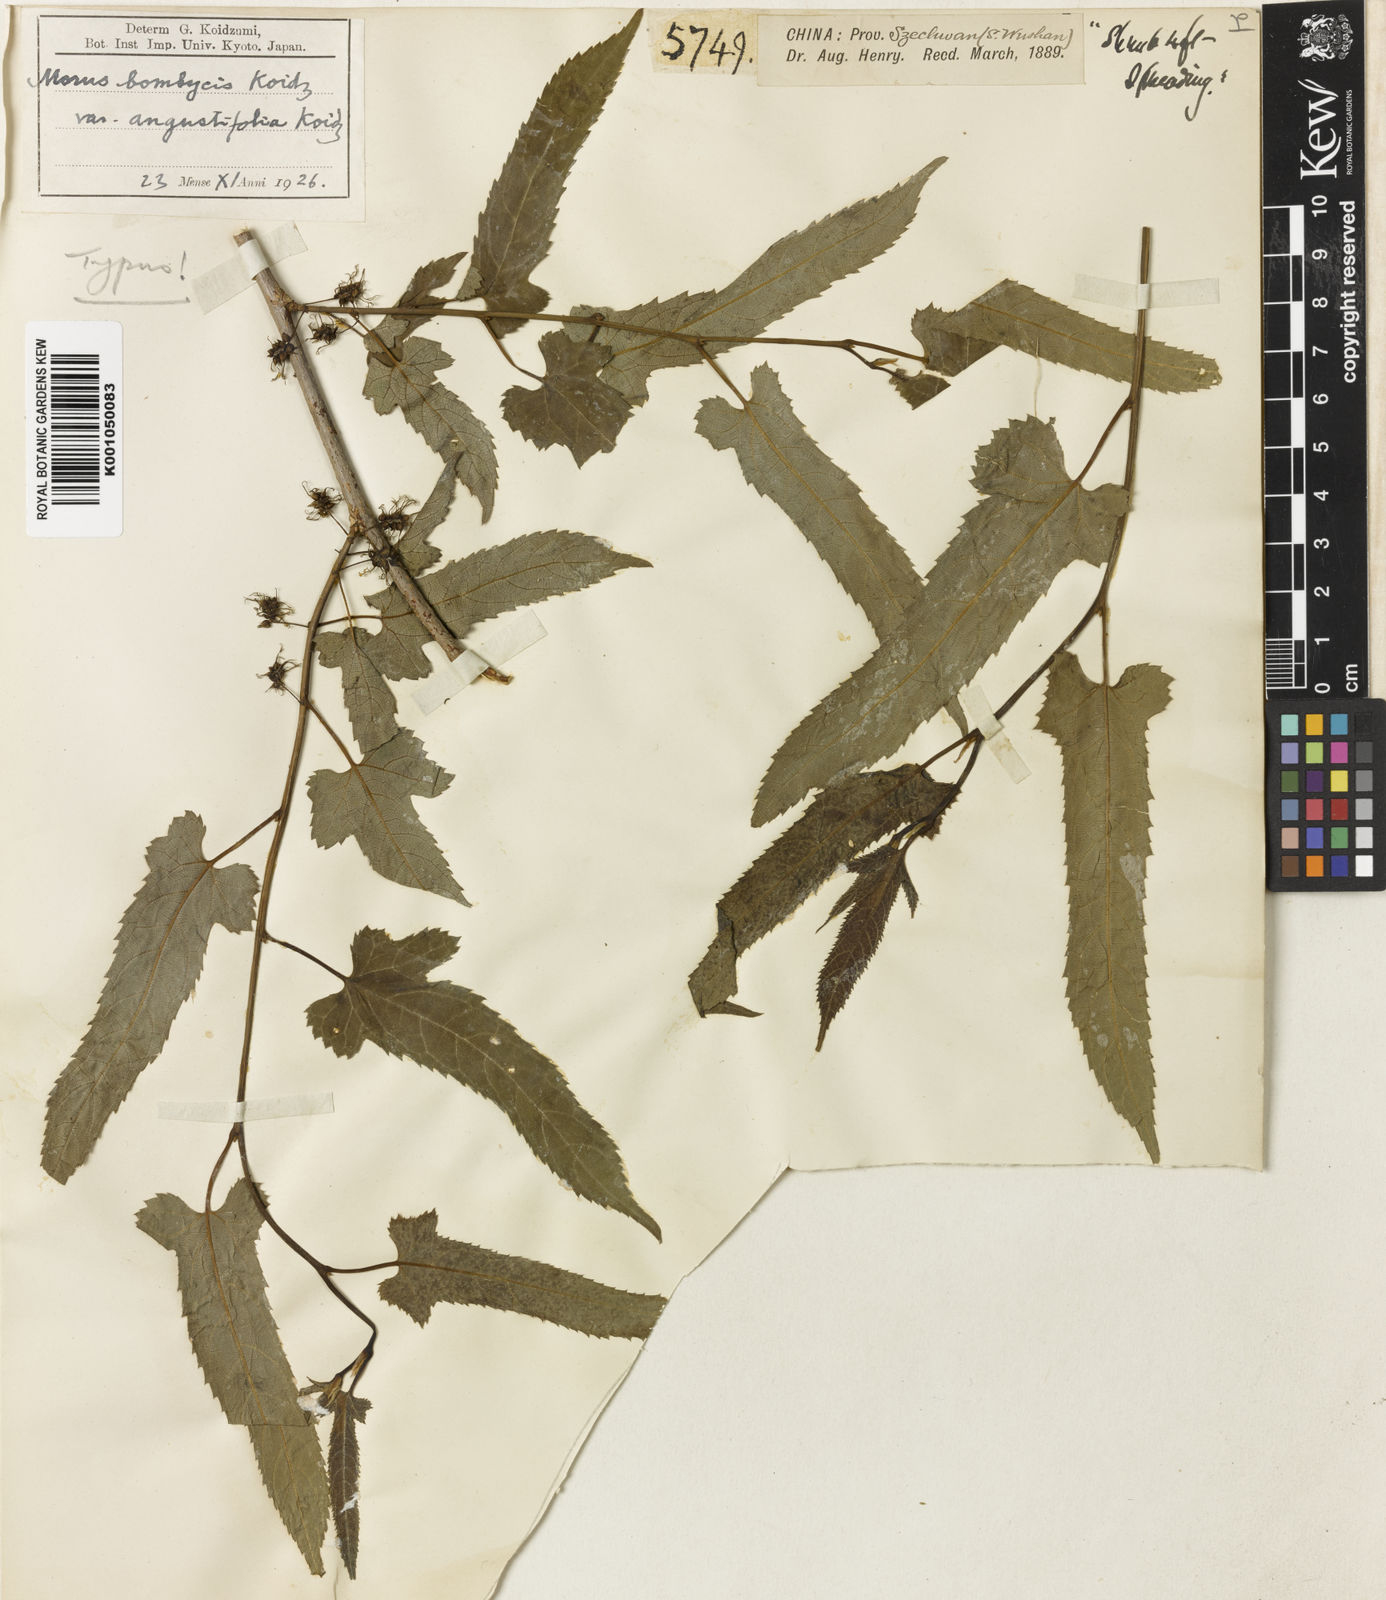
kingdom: Plantae
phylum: Tracheophyta
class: Magnoliopsida
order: Rosales
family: Moraceae
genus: Morus
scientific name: Morus indica
